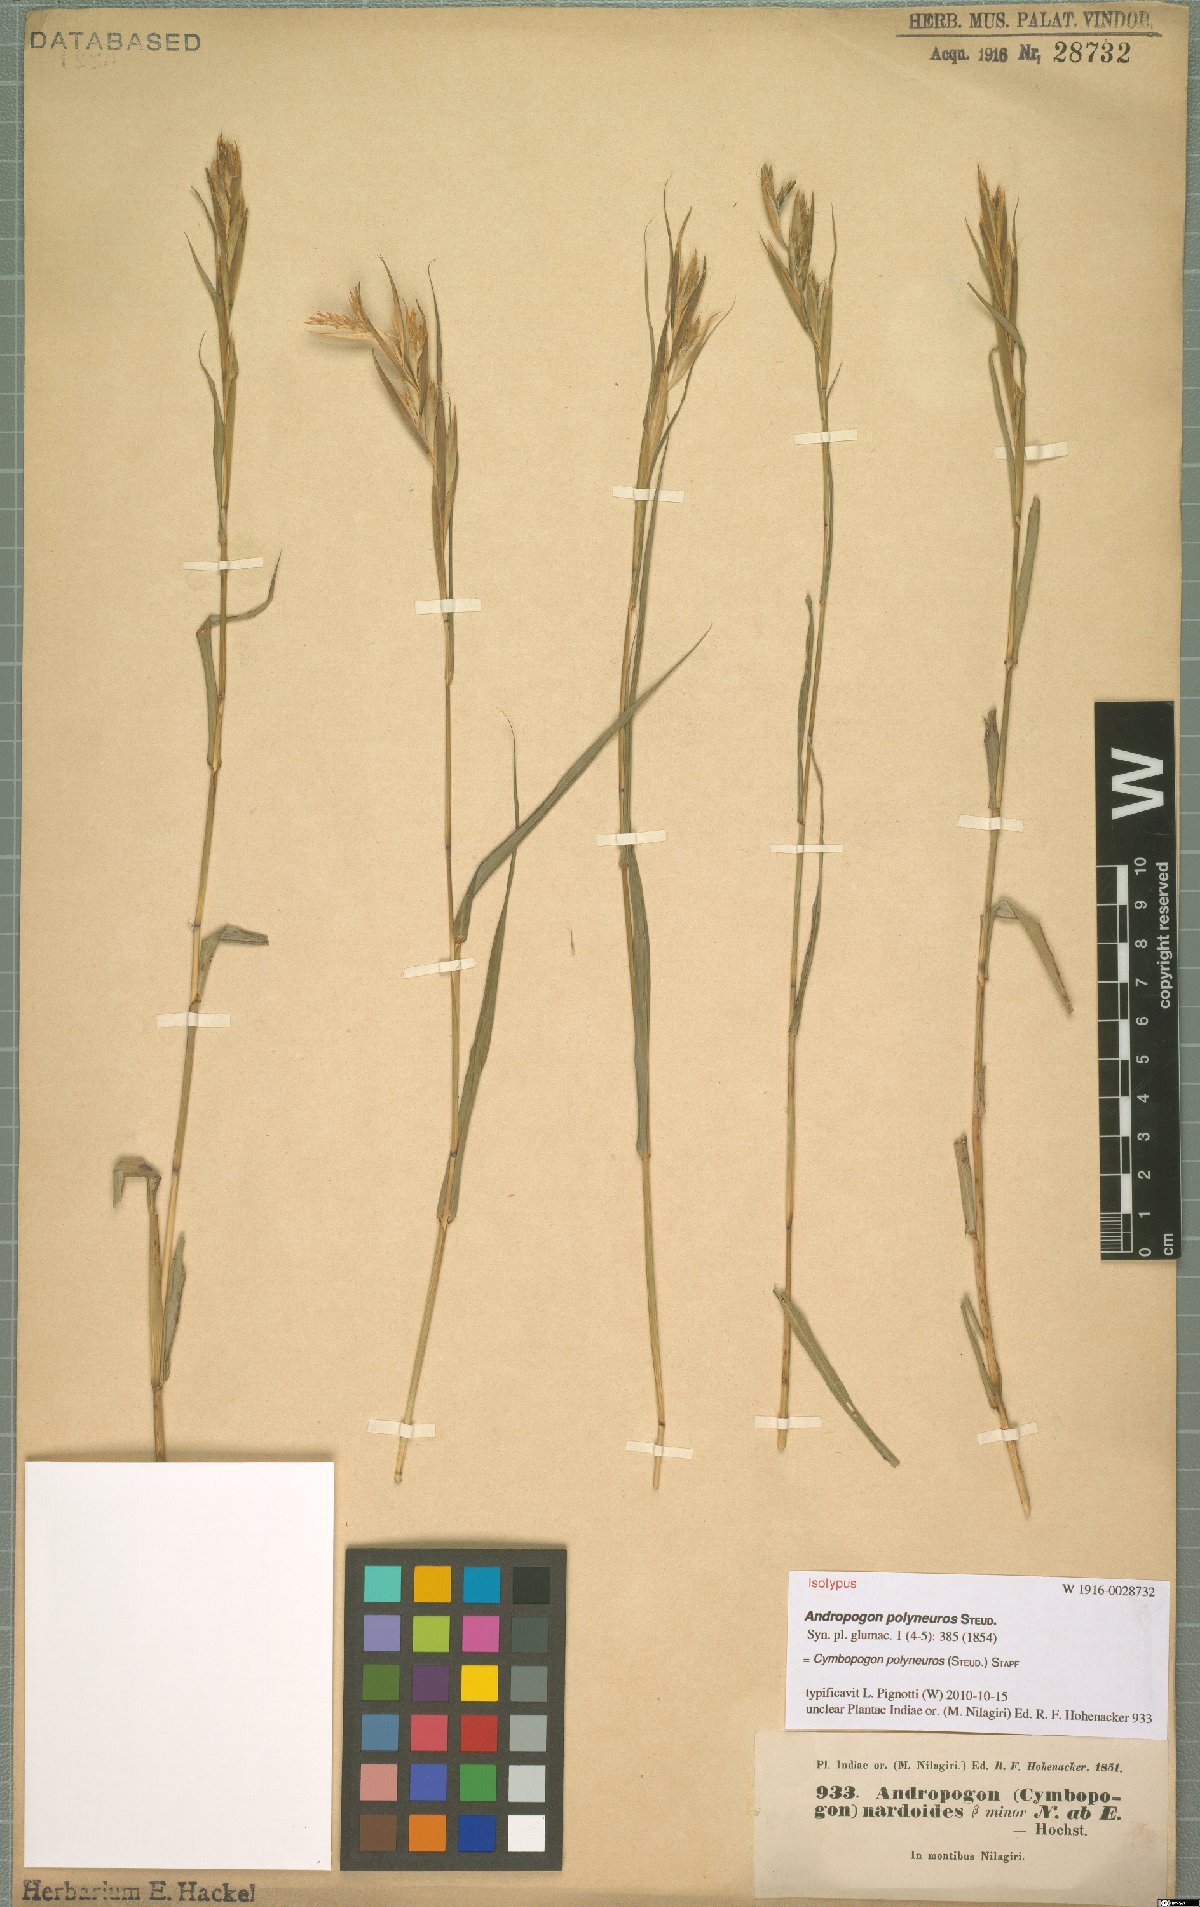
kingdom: Plantae
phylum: Tracheophyta
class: Liliopsida
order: Poales
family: Poaceae
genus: Cymbopogon
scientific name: Cymbopogon polyneuros
